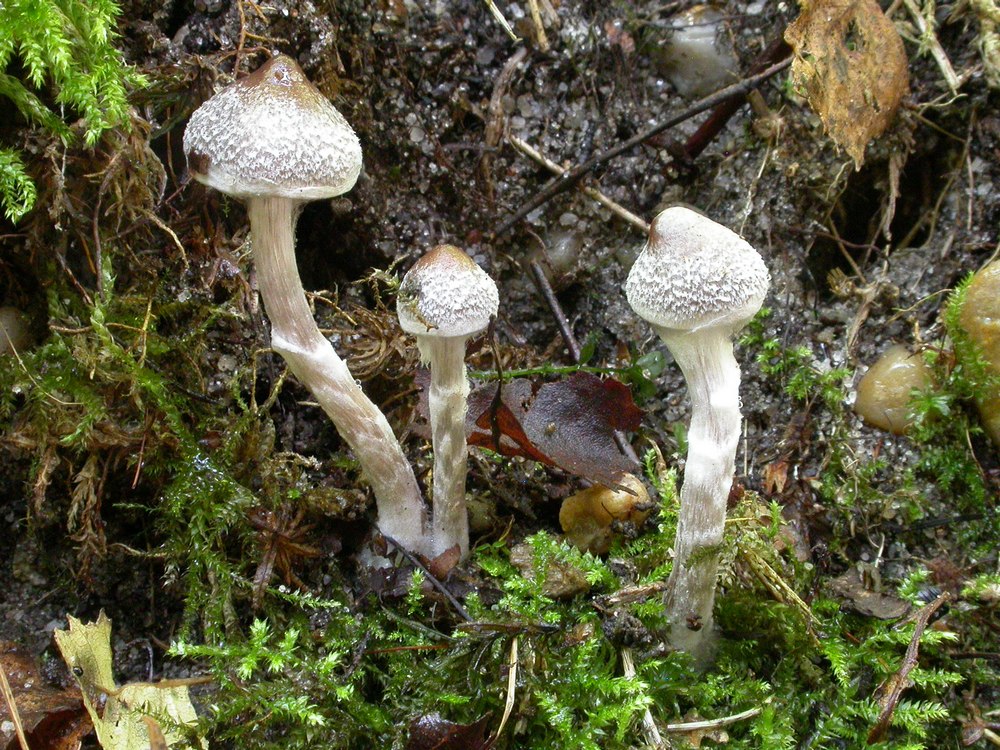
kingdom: Fungi
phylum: Basidiomycota
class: Agaricomycetes
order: Agaricales
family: Cortinariaceae
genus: Cortinarius
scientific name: Cortinarius
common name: pelargonie-slørhat
